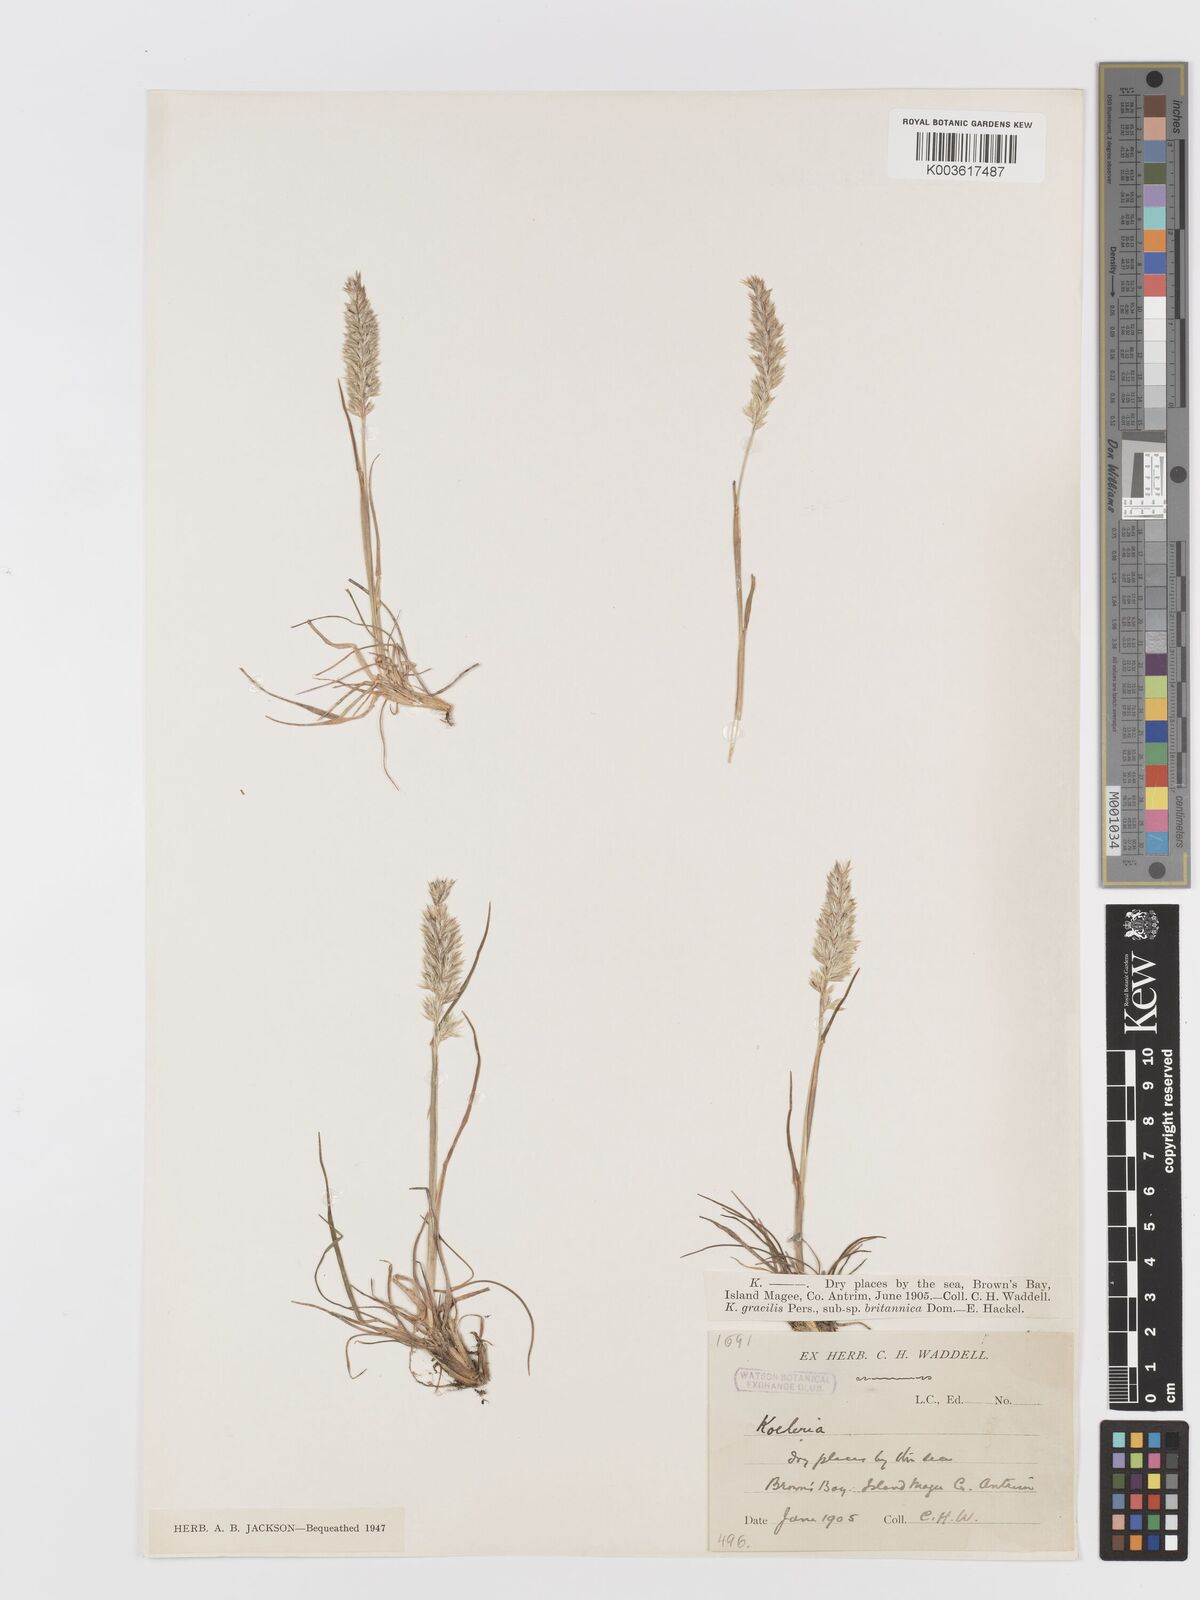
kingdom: Plantae
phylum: Tracheophyta
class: Liliopsida
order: Poales
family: Poaceae
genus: Koeleria
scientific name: Koeleria
